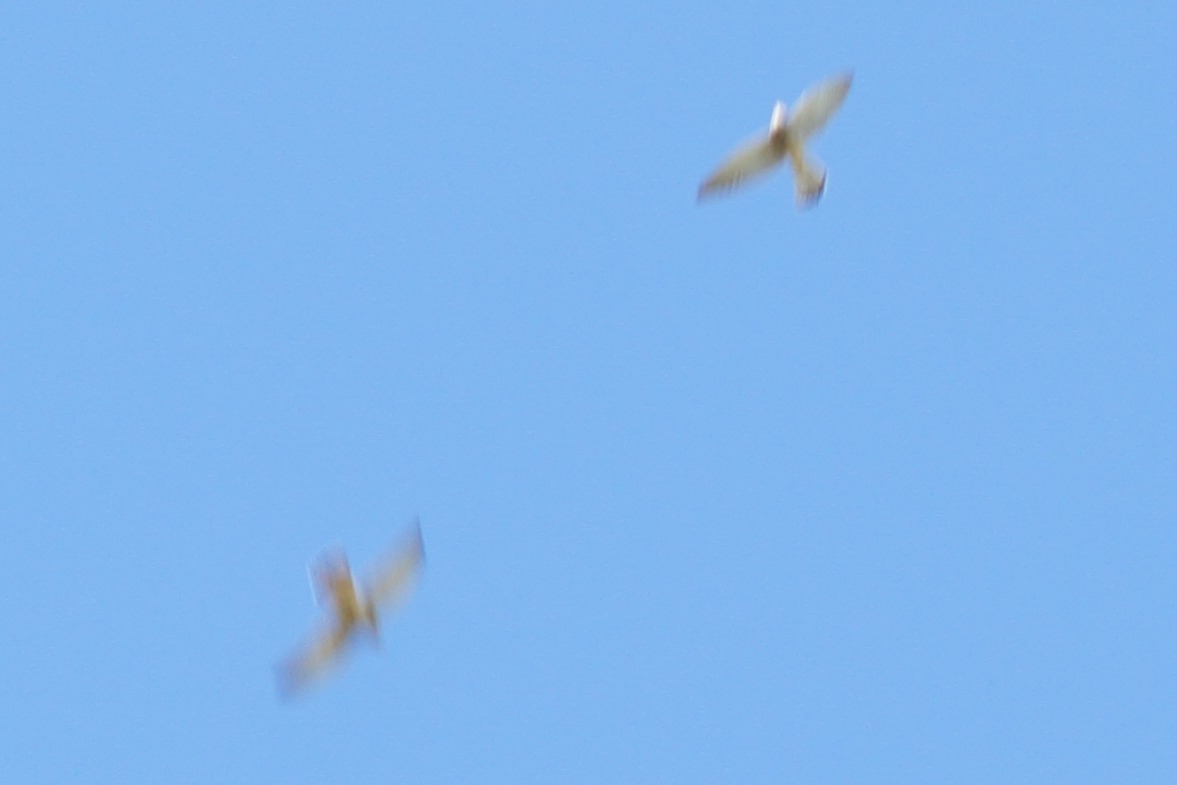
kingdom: Animalia
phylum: Chordata
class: Aves
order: Falconiformes
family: Falconidae
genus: Falco
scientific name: Falco tinnunculus
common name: Tårnfalk
